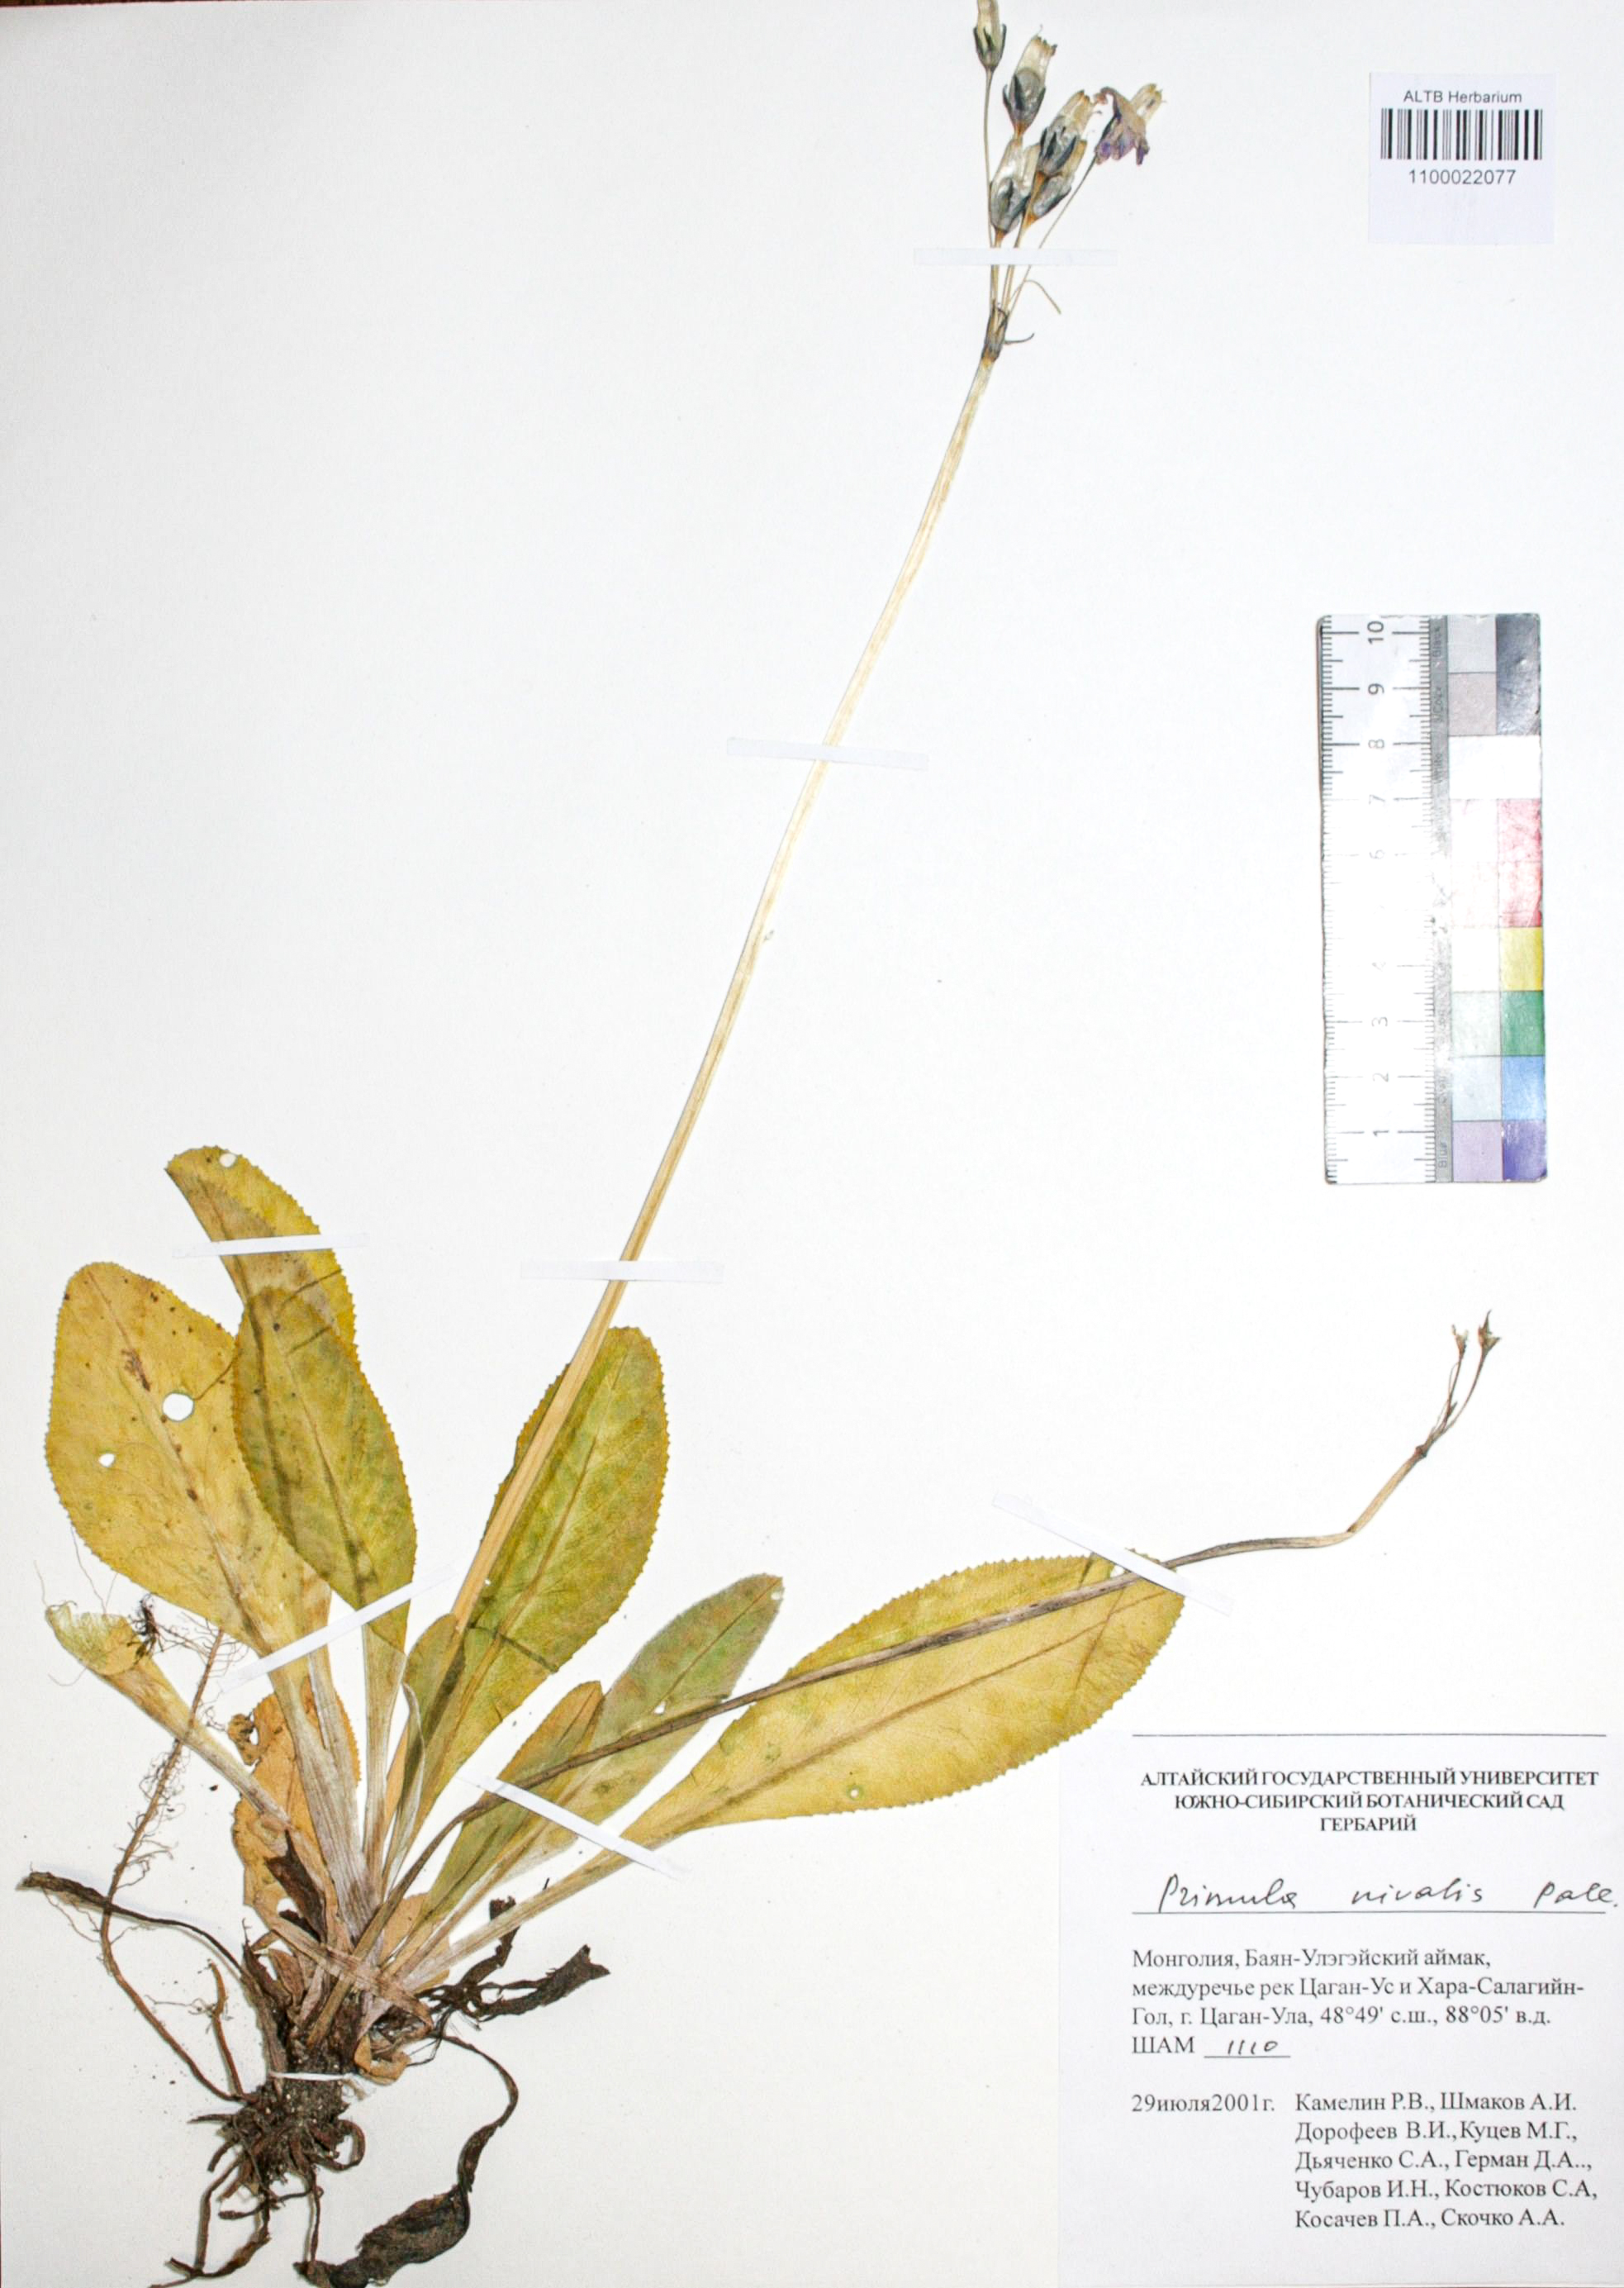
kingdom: Plantae
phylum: Tracheophyta
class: Magnoliopsida
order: Ericales
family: Primulaceae
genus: Primula
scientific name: Primula nivalis
